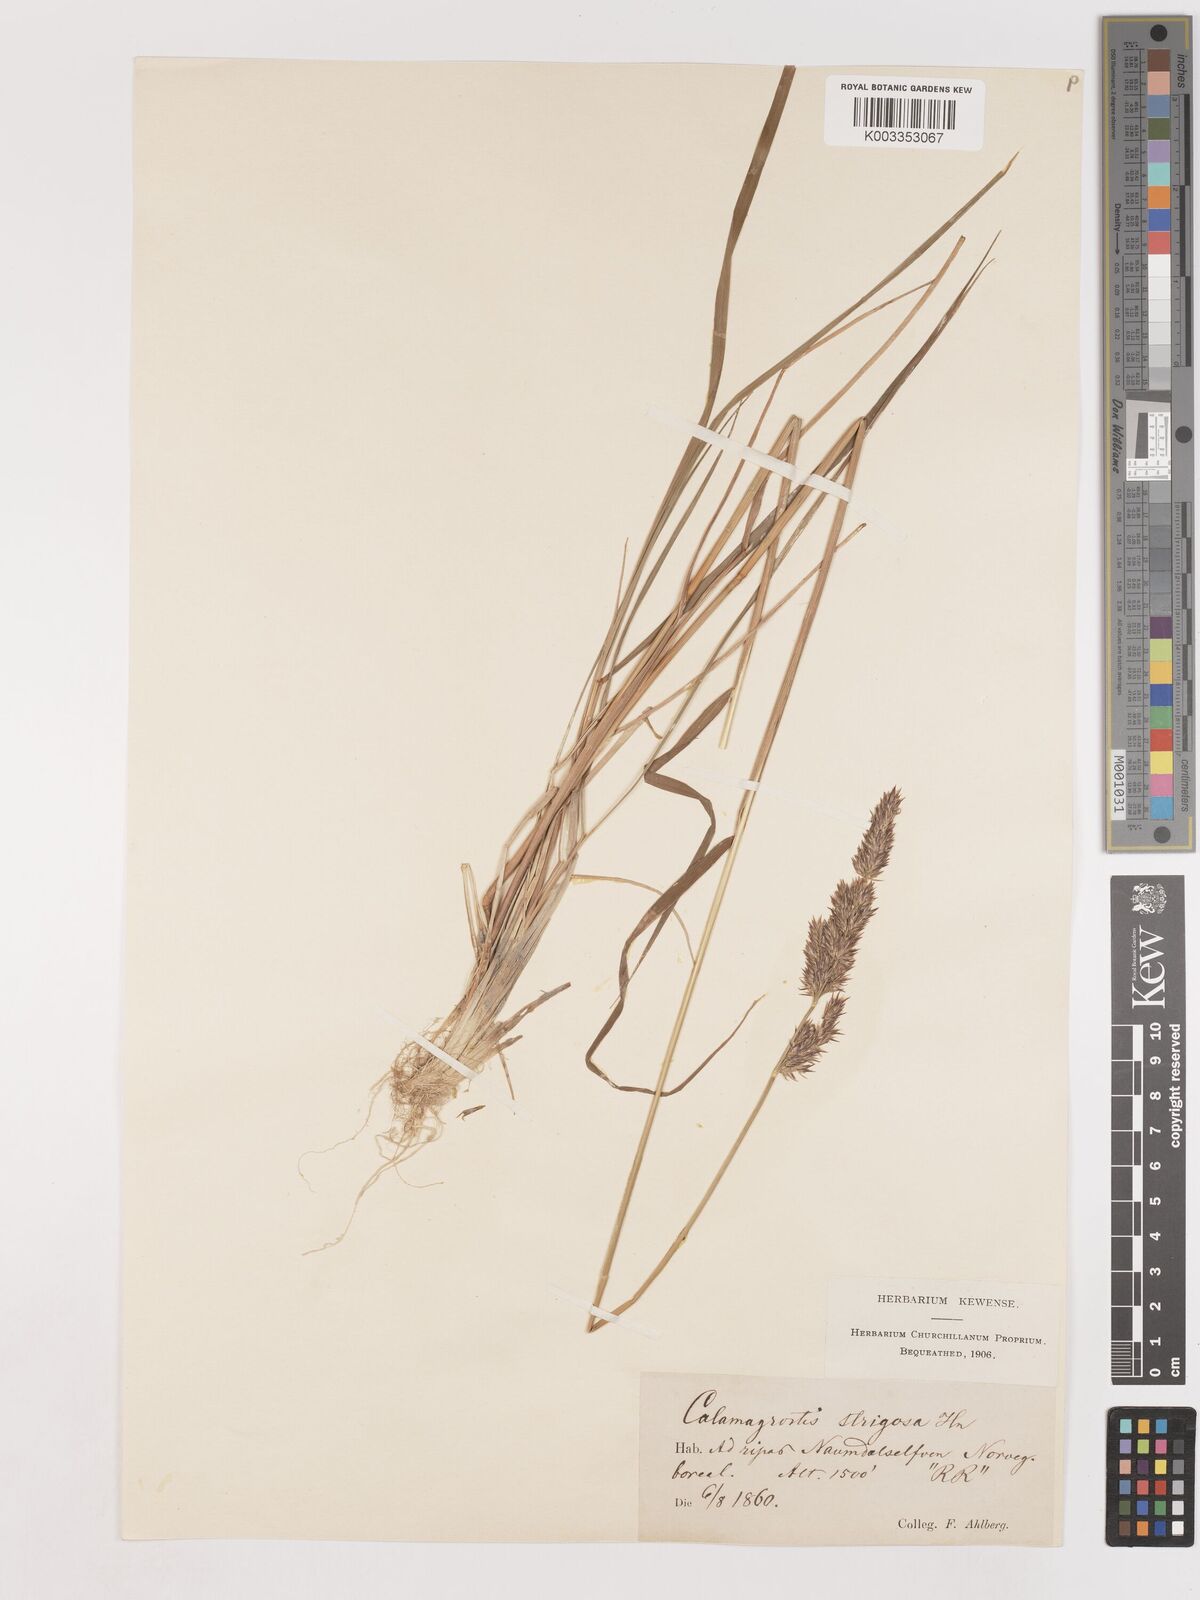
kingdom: Plantae
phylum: Tracheophyta
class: Liliopsida
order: Poales
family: Poaceae
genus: Calamagrostis
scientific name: Calamagrostis epigejos
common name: Wood small-reed
